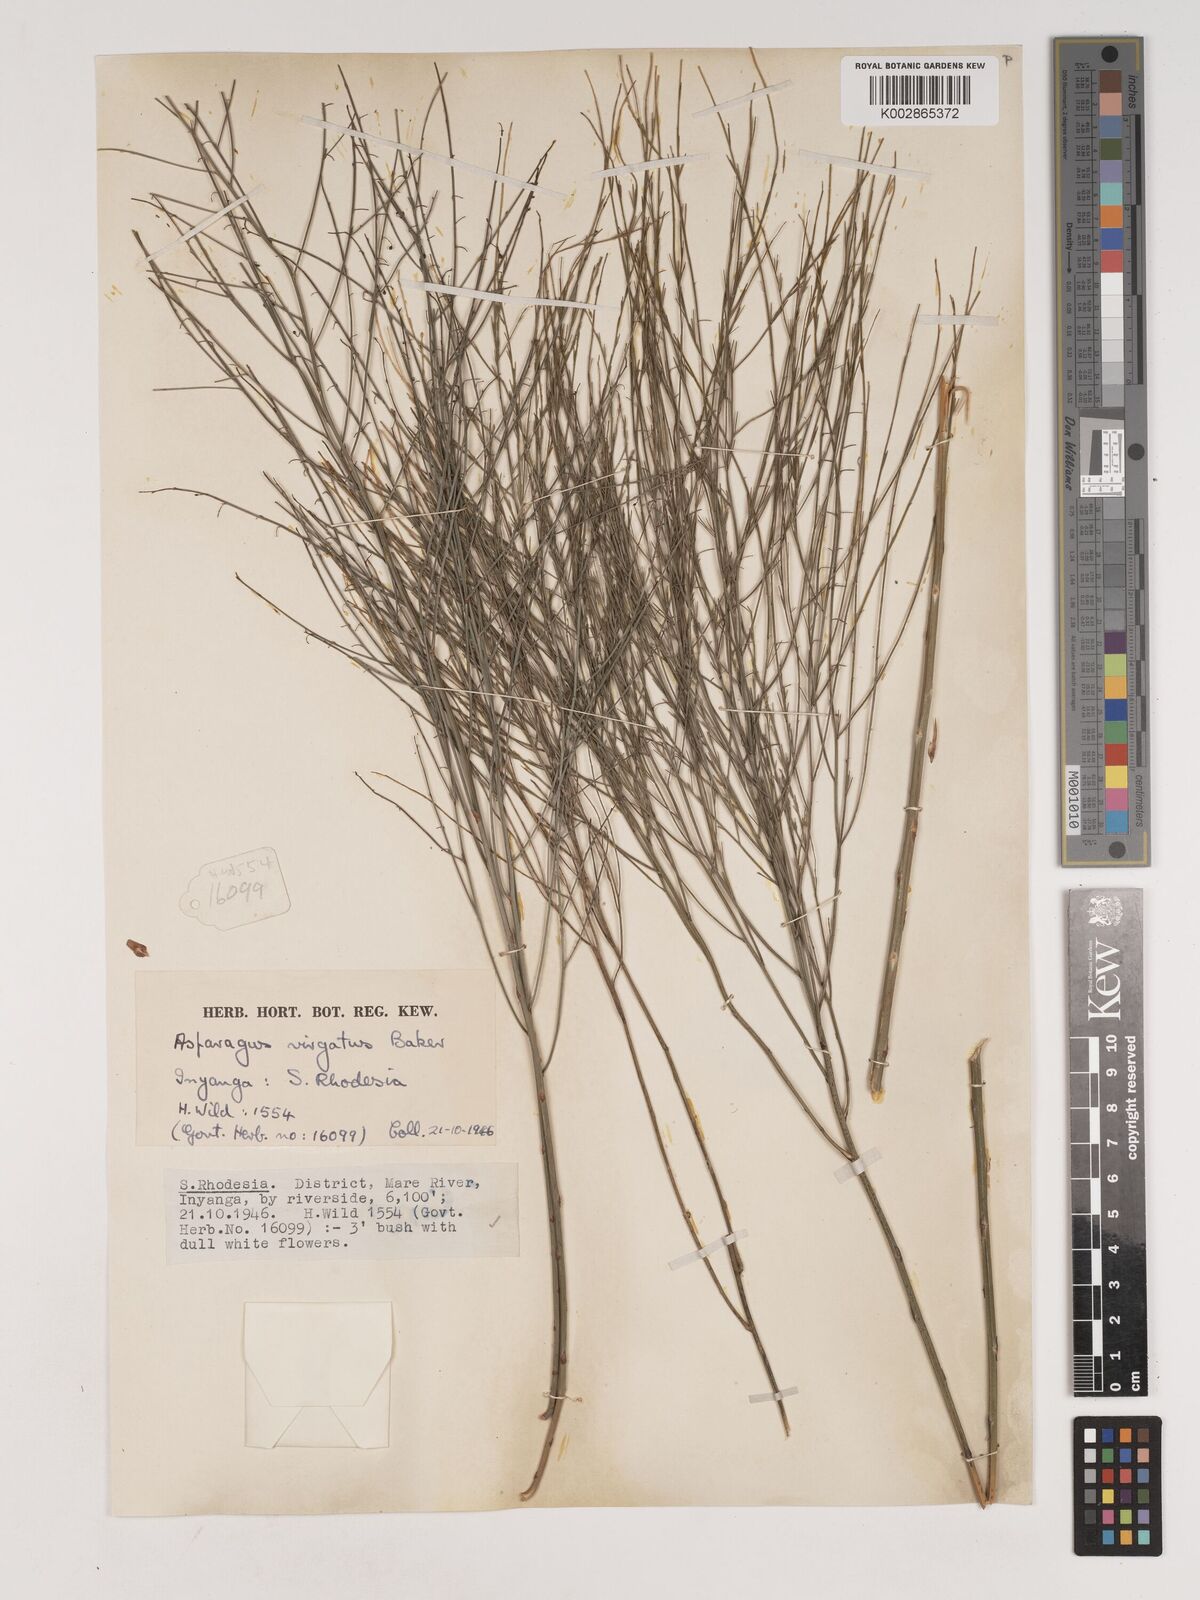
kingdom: Plantae
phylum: Tracheophyta
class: Liliopsida
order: Asparagales
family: Asparagaceae
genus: Asparagus
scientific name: Asparagus virgatus
